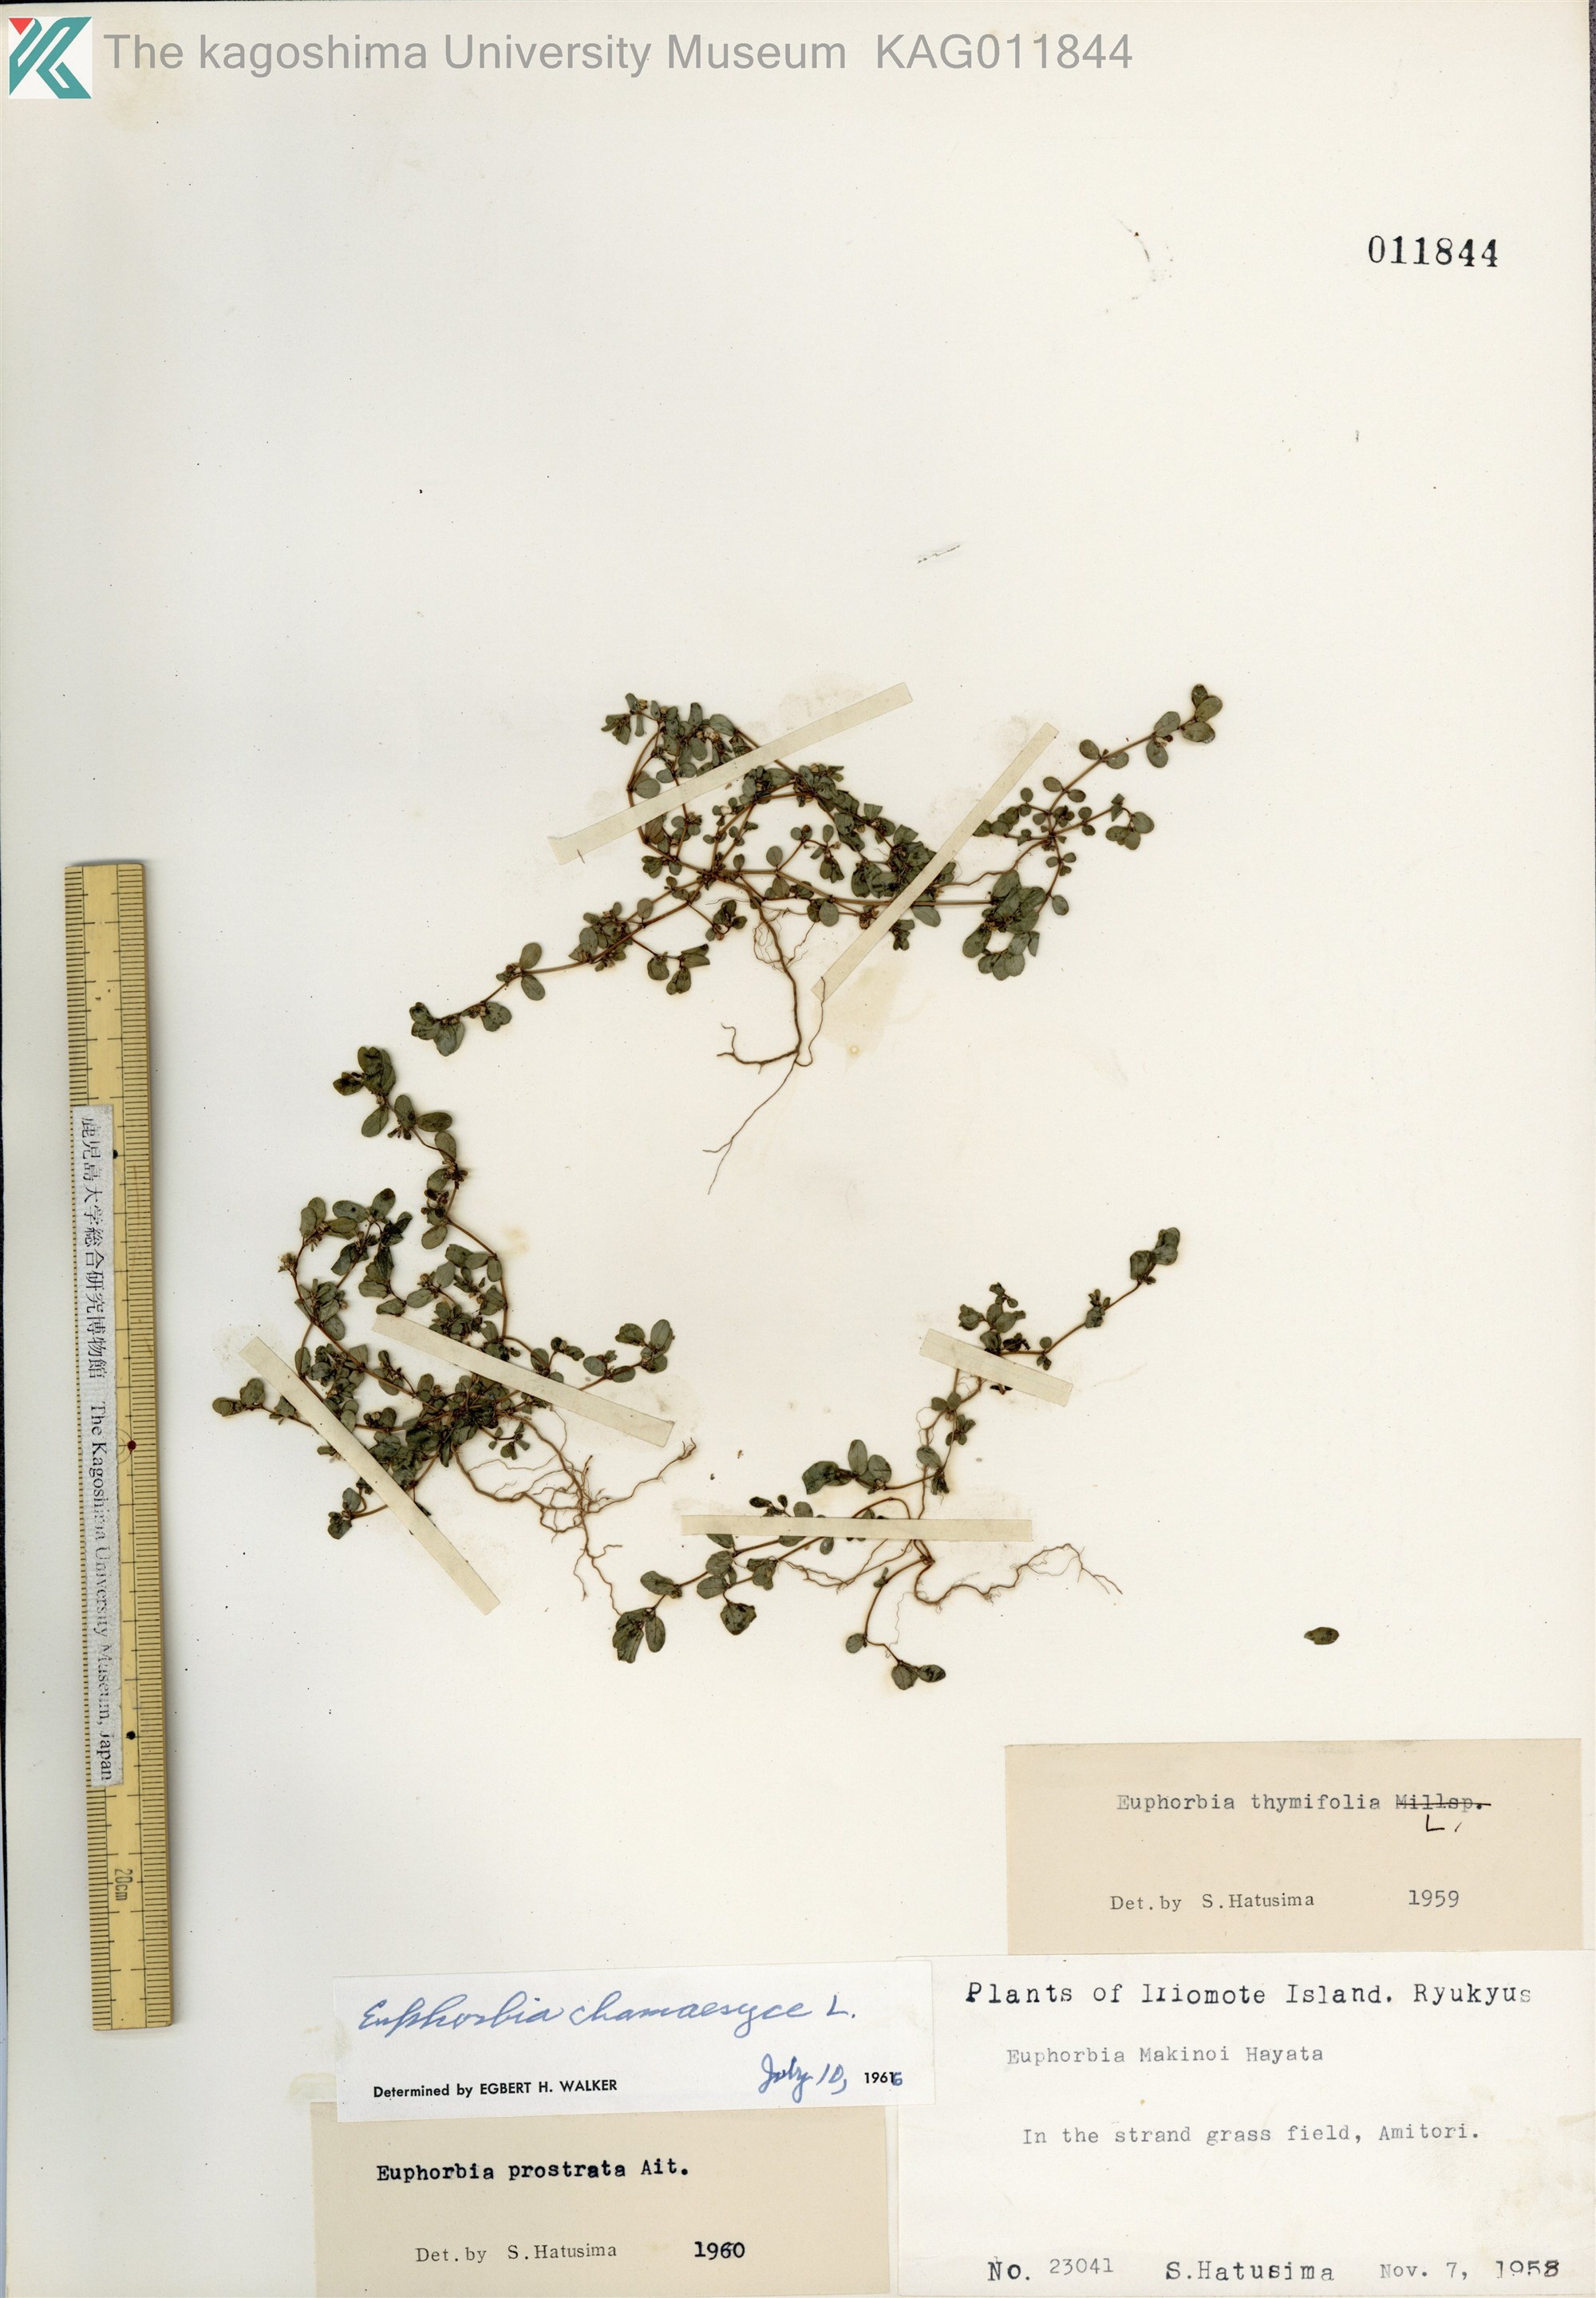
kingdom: Plantae
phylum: Tracheophyta
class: Magnoliopsida
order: Malpighiales
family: Euphorbiaceae
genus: Euphorbia
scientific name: Euphorbia prostrata
